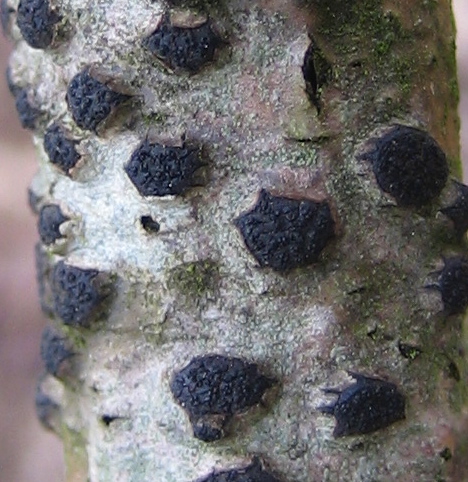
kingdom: Fungi
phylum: Ascomycota
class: Sordariomycetes
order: Xylariales
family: Diatrypaceae
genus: Eutypella
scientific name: Eutypella sorbi
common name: rønne-kulskorpe
